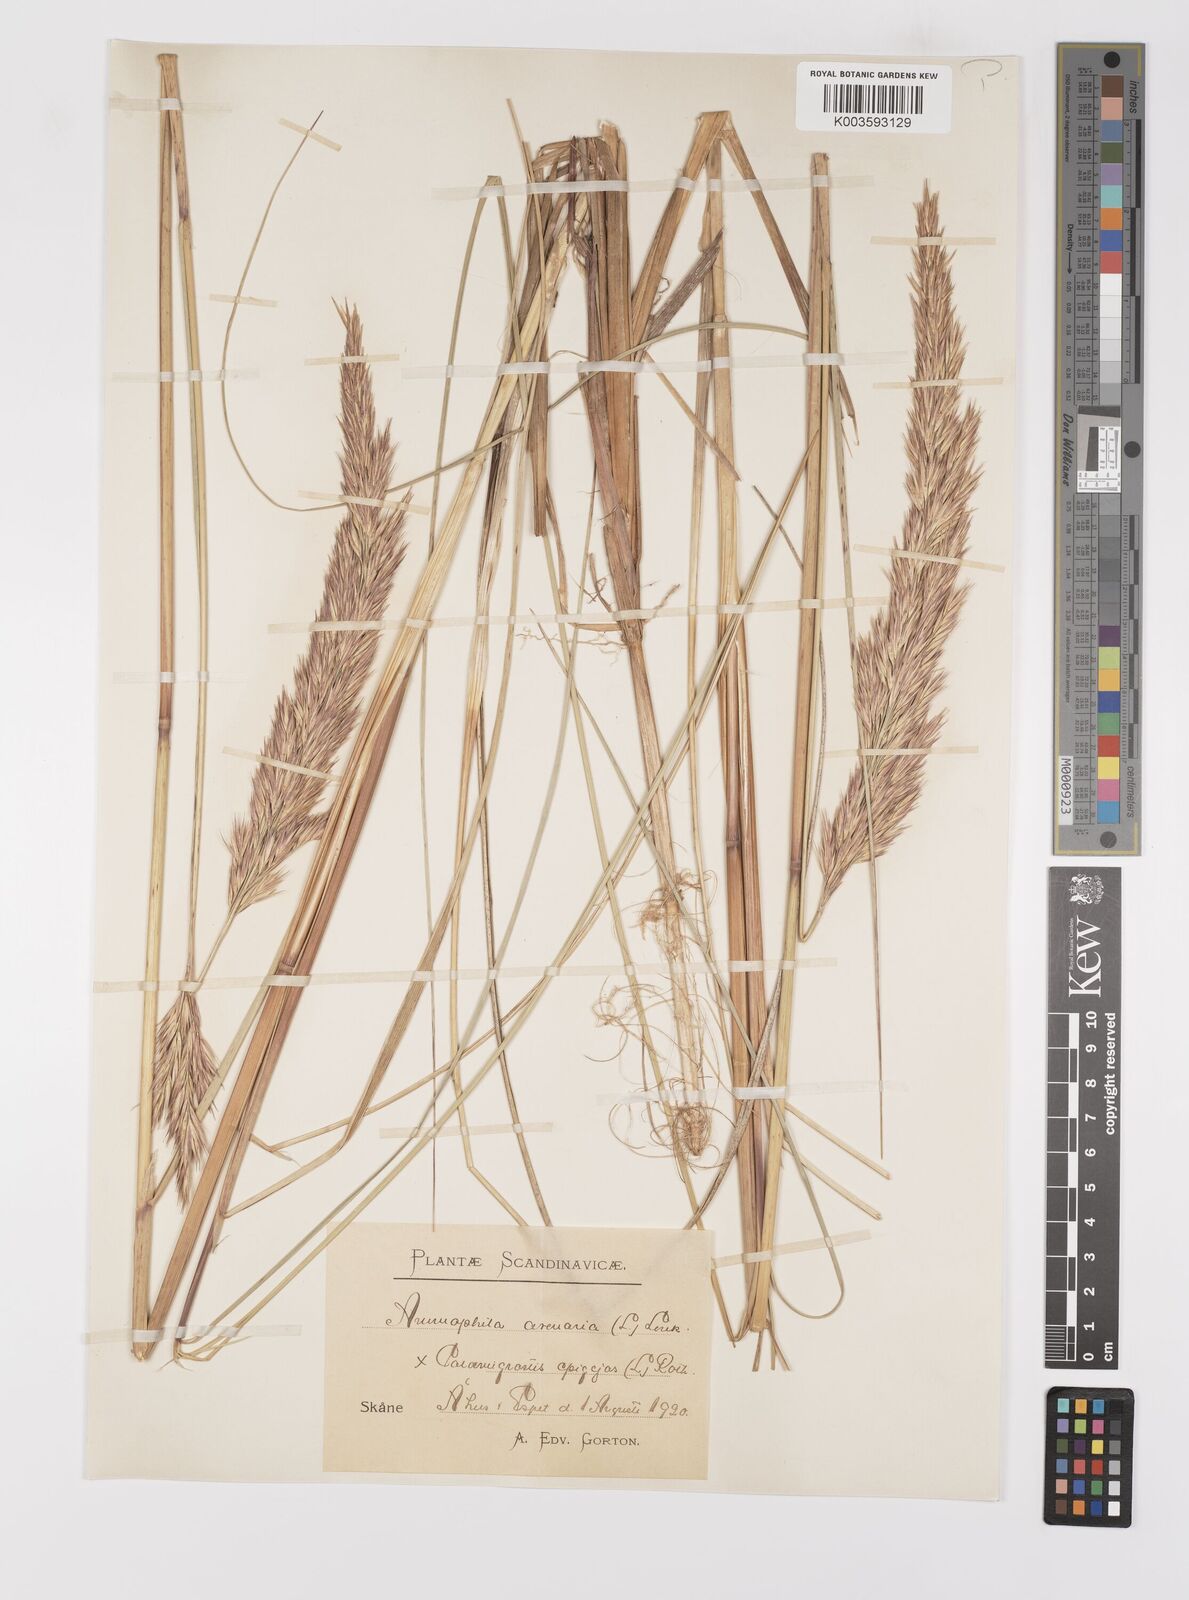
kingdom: Plantae
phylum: Tracheophyta
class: Liliopsida
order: Poales
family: Poaceae
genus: Calamagrostis
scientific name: Calamagrostis baltica
